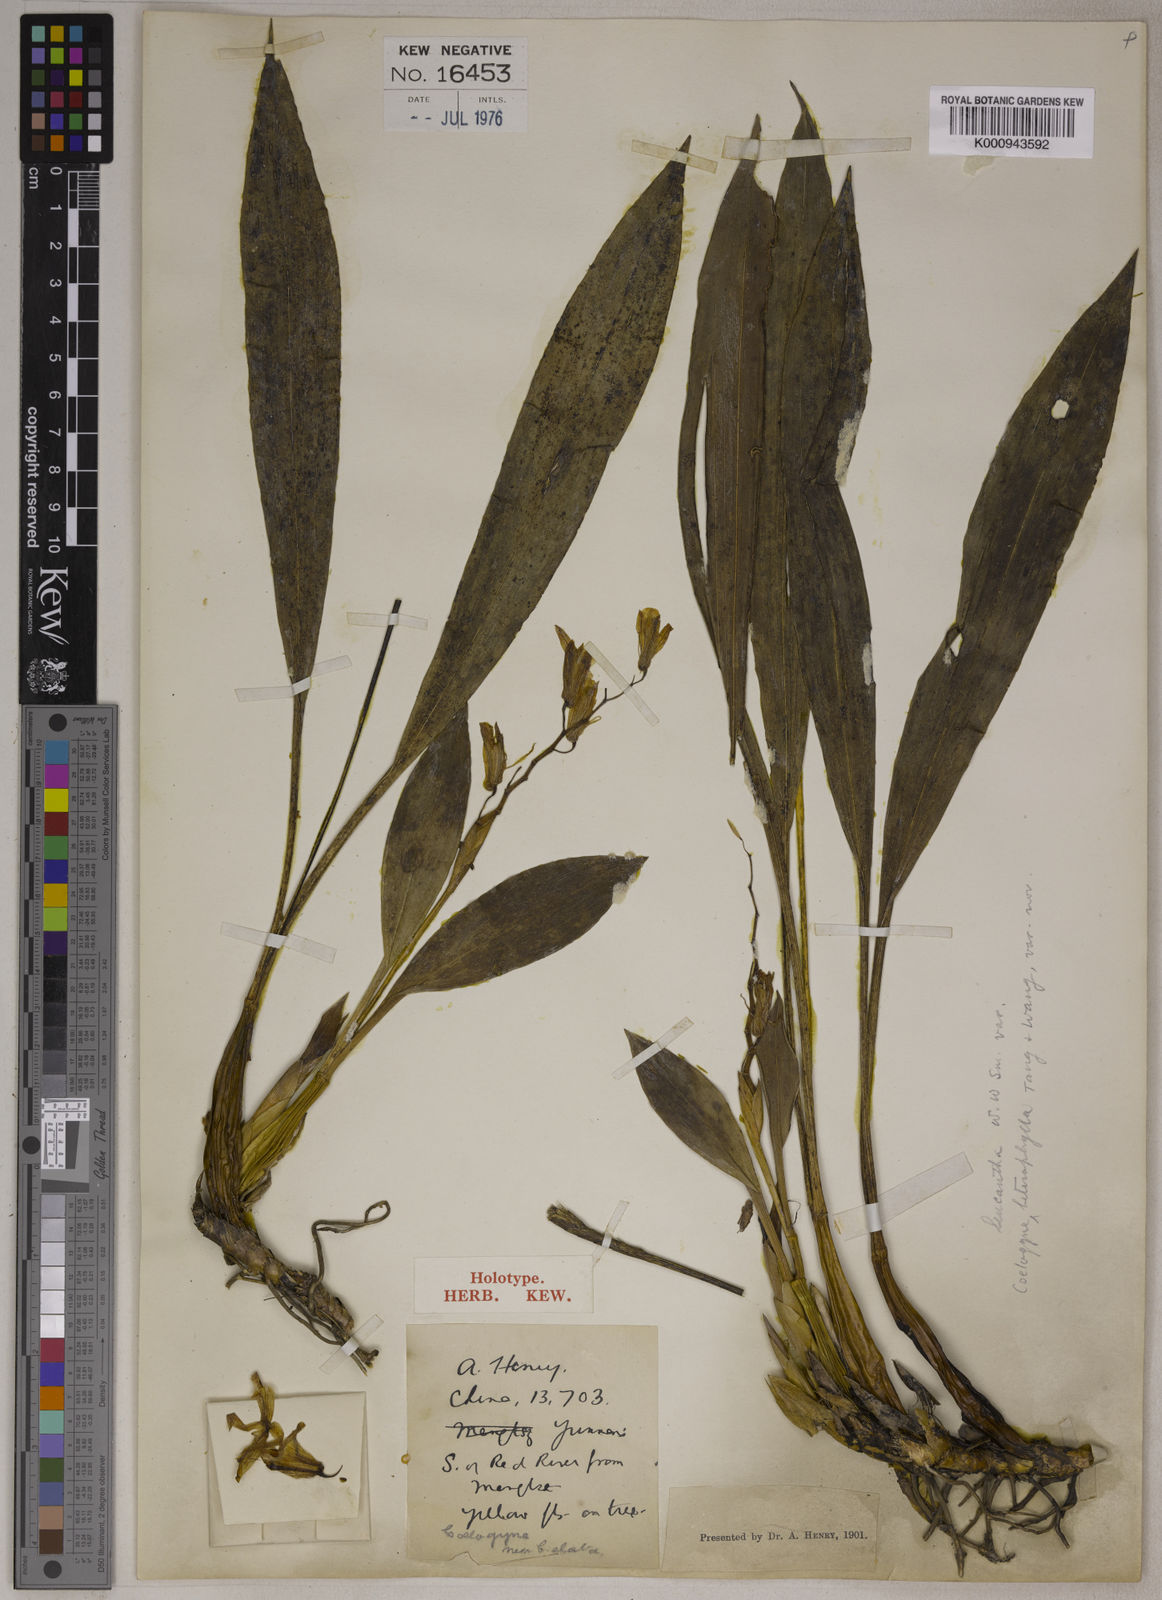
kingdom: Plantae
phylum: Tracheophyta
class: Liliopsida
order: Asparagales
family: Orchidaceae
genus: Coelogyne
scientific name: Coelogyne leucantha
